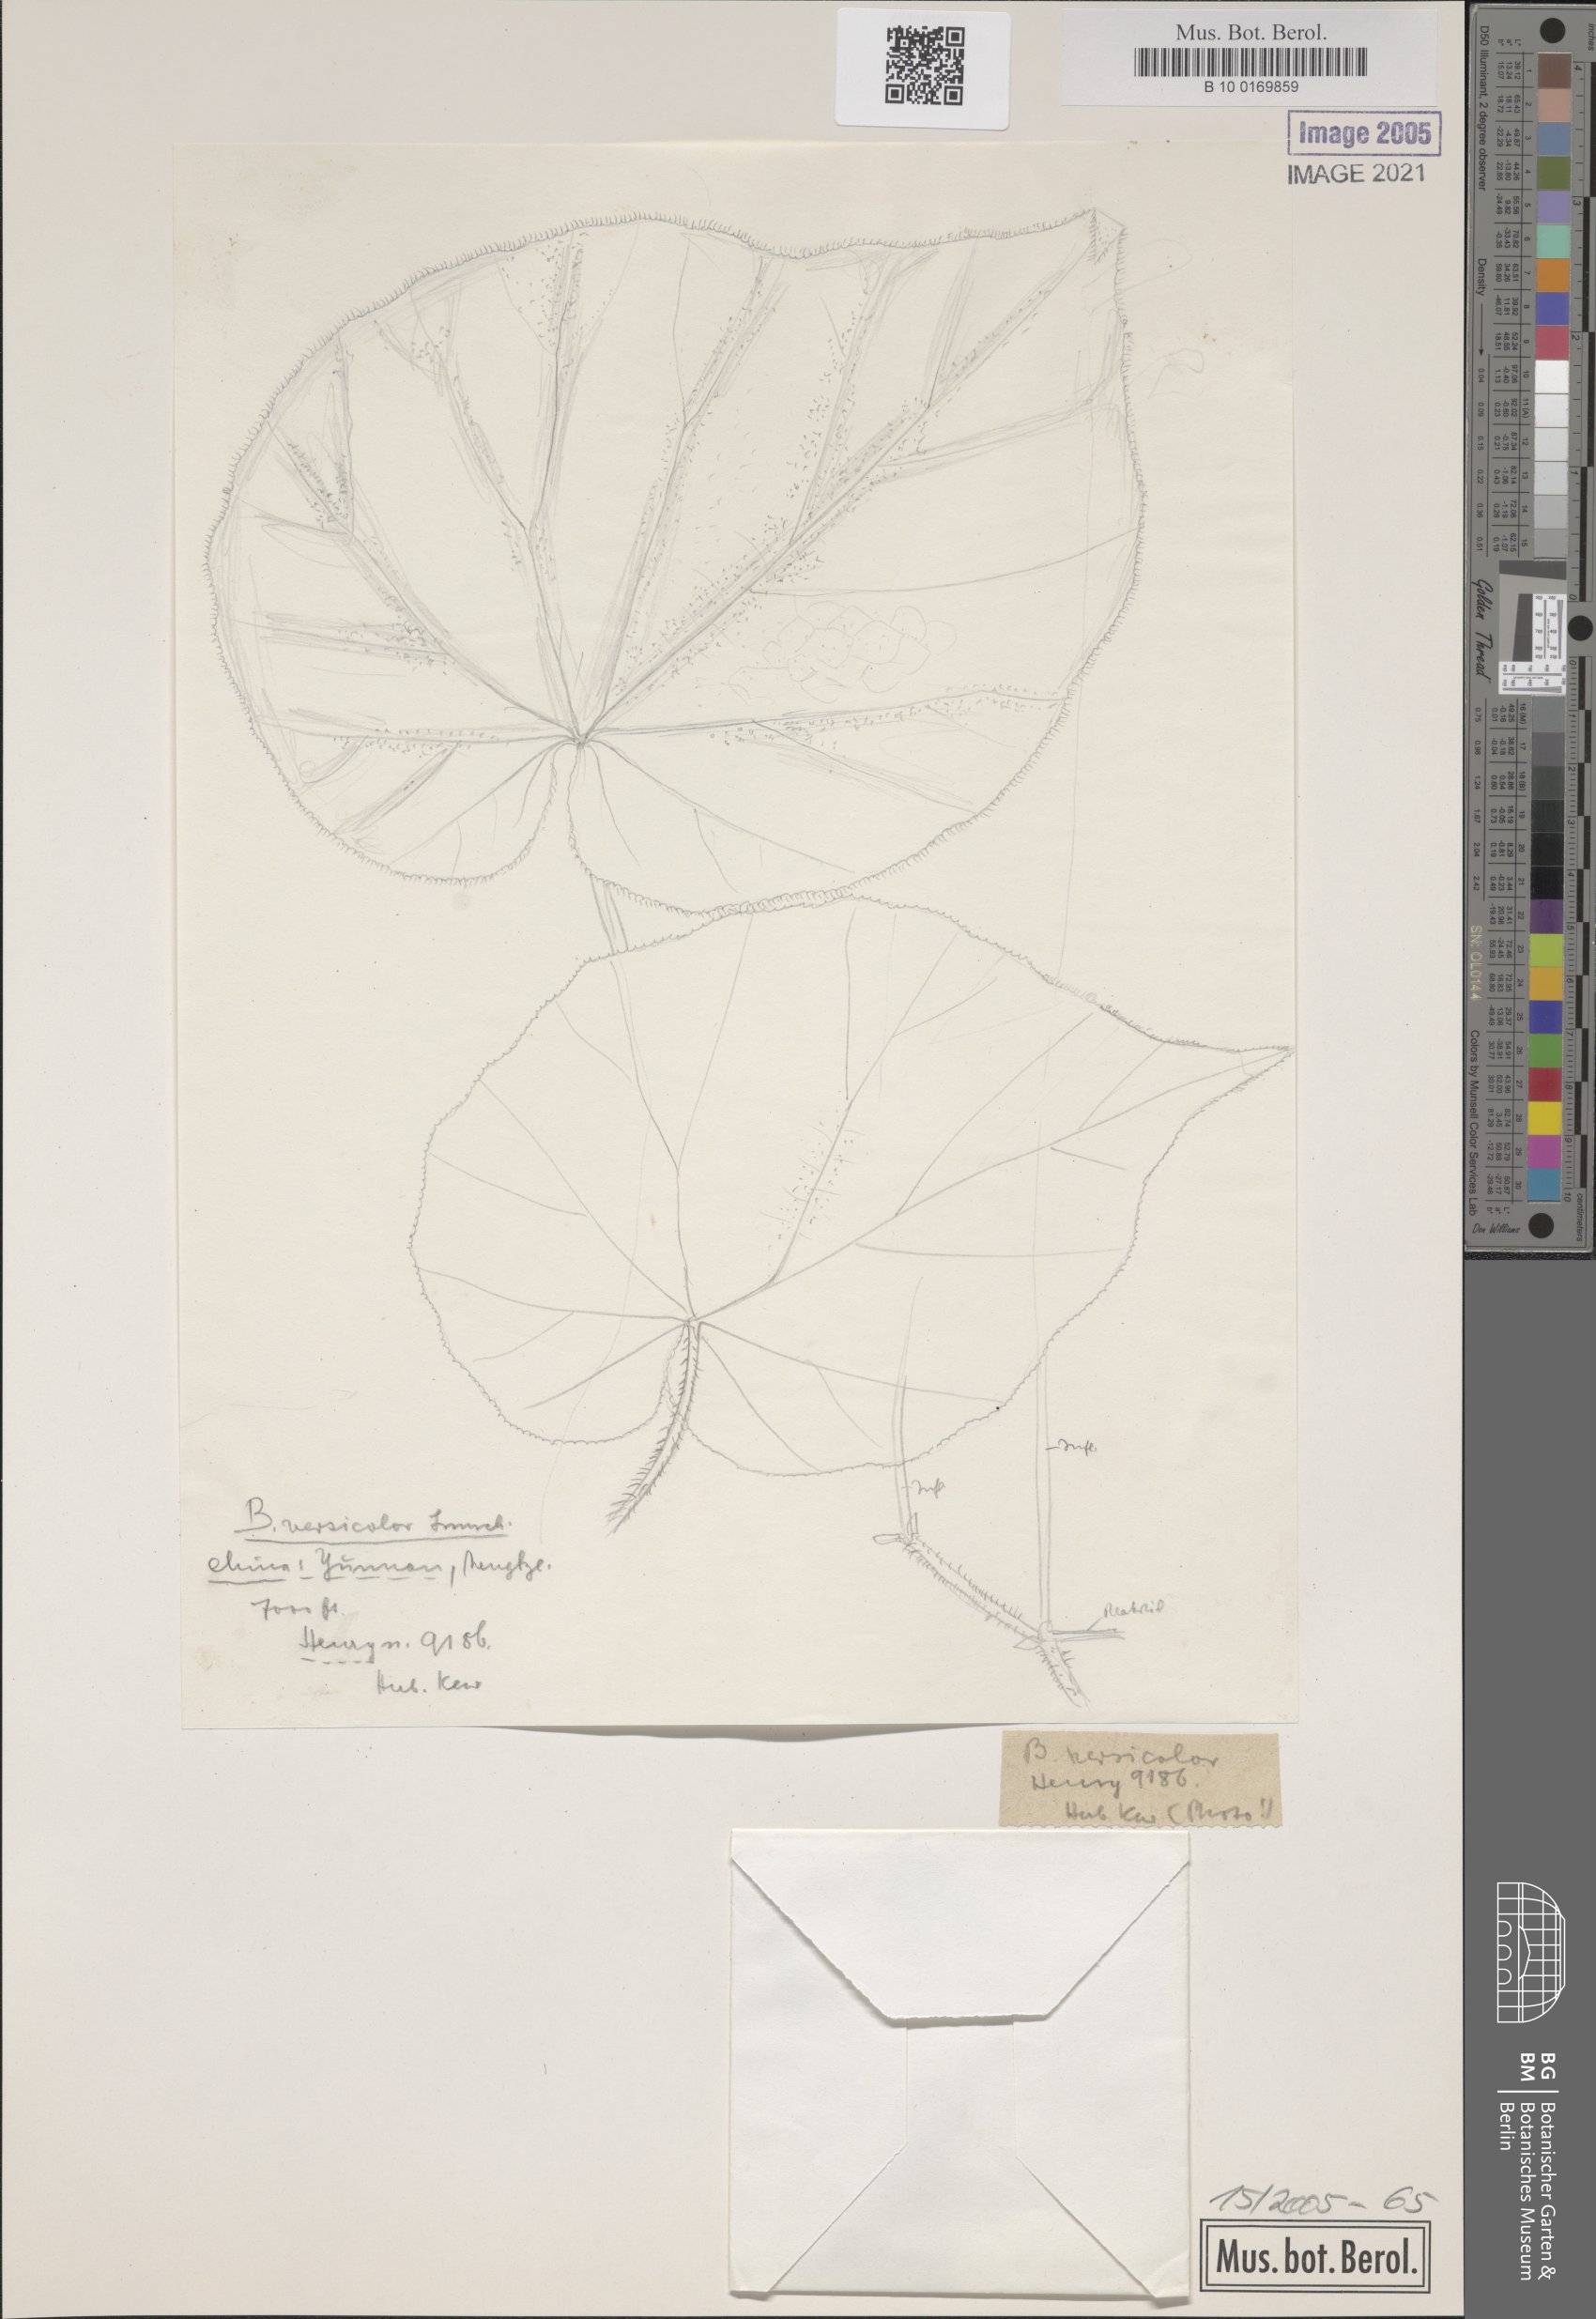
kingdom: Plantae
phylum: Tracheophyta
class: Magnoliopsida
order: Cucurbitales
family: Begoniaceae
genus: Begonia
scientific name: Begonia versicolor
